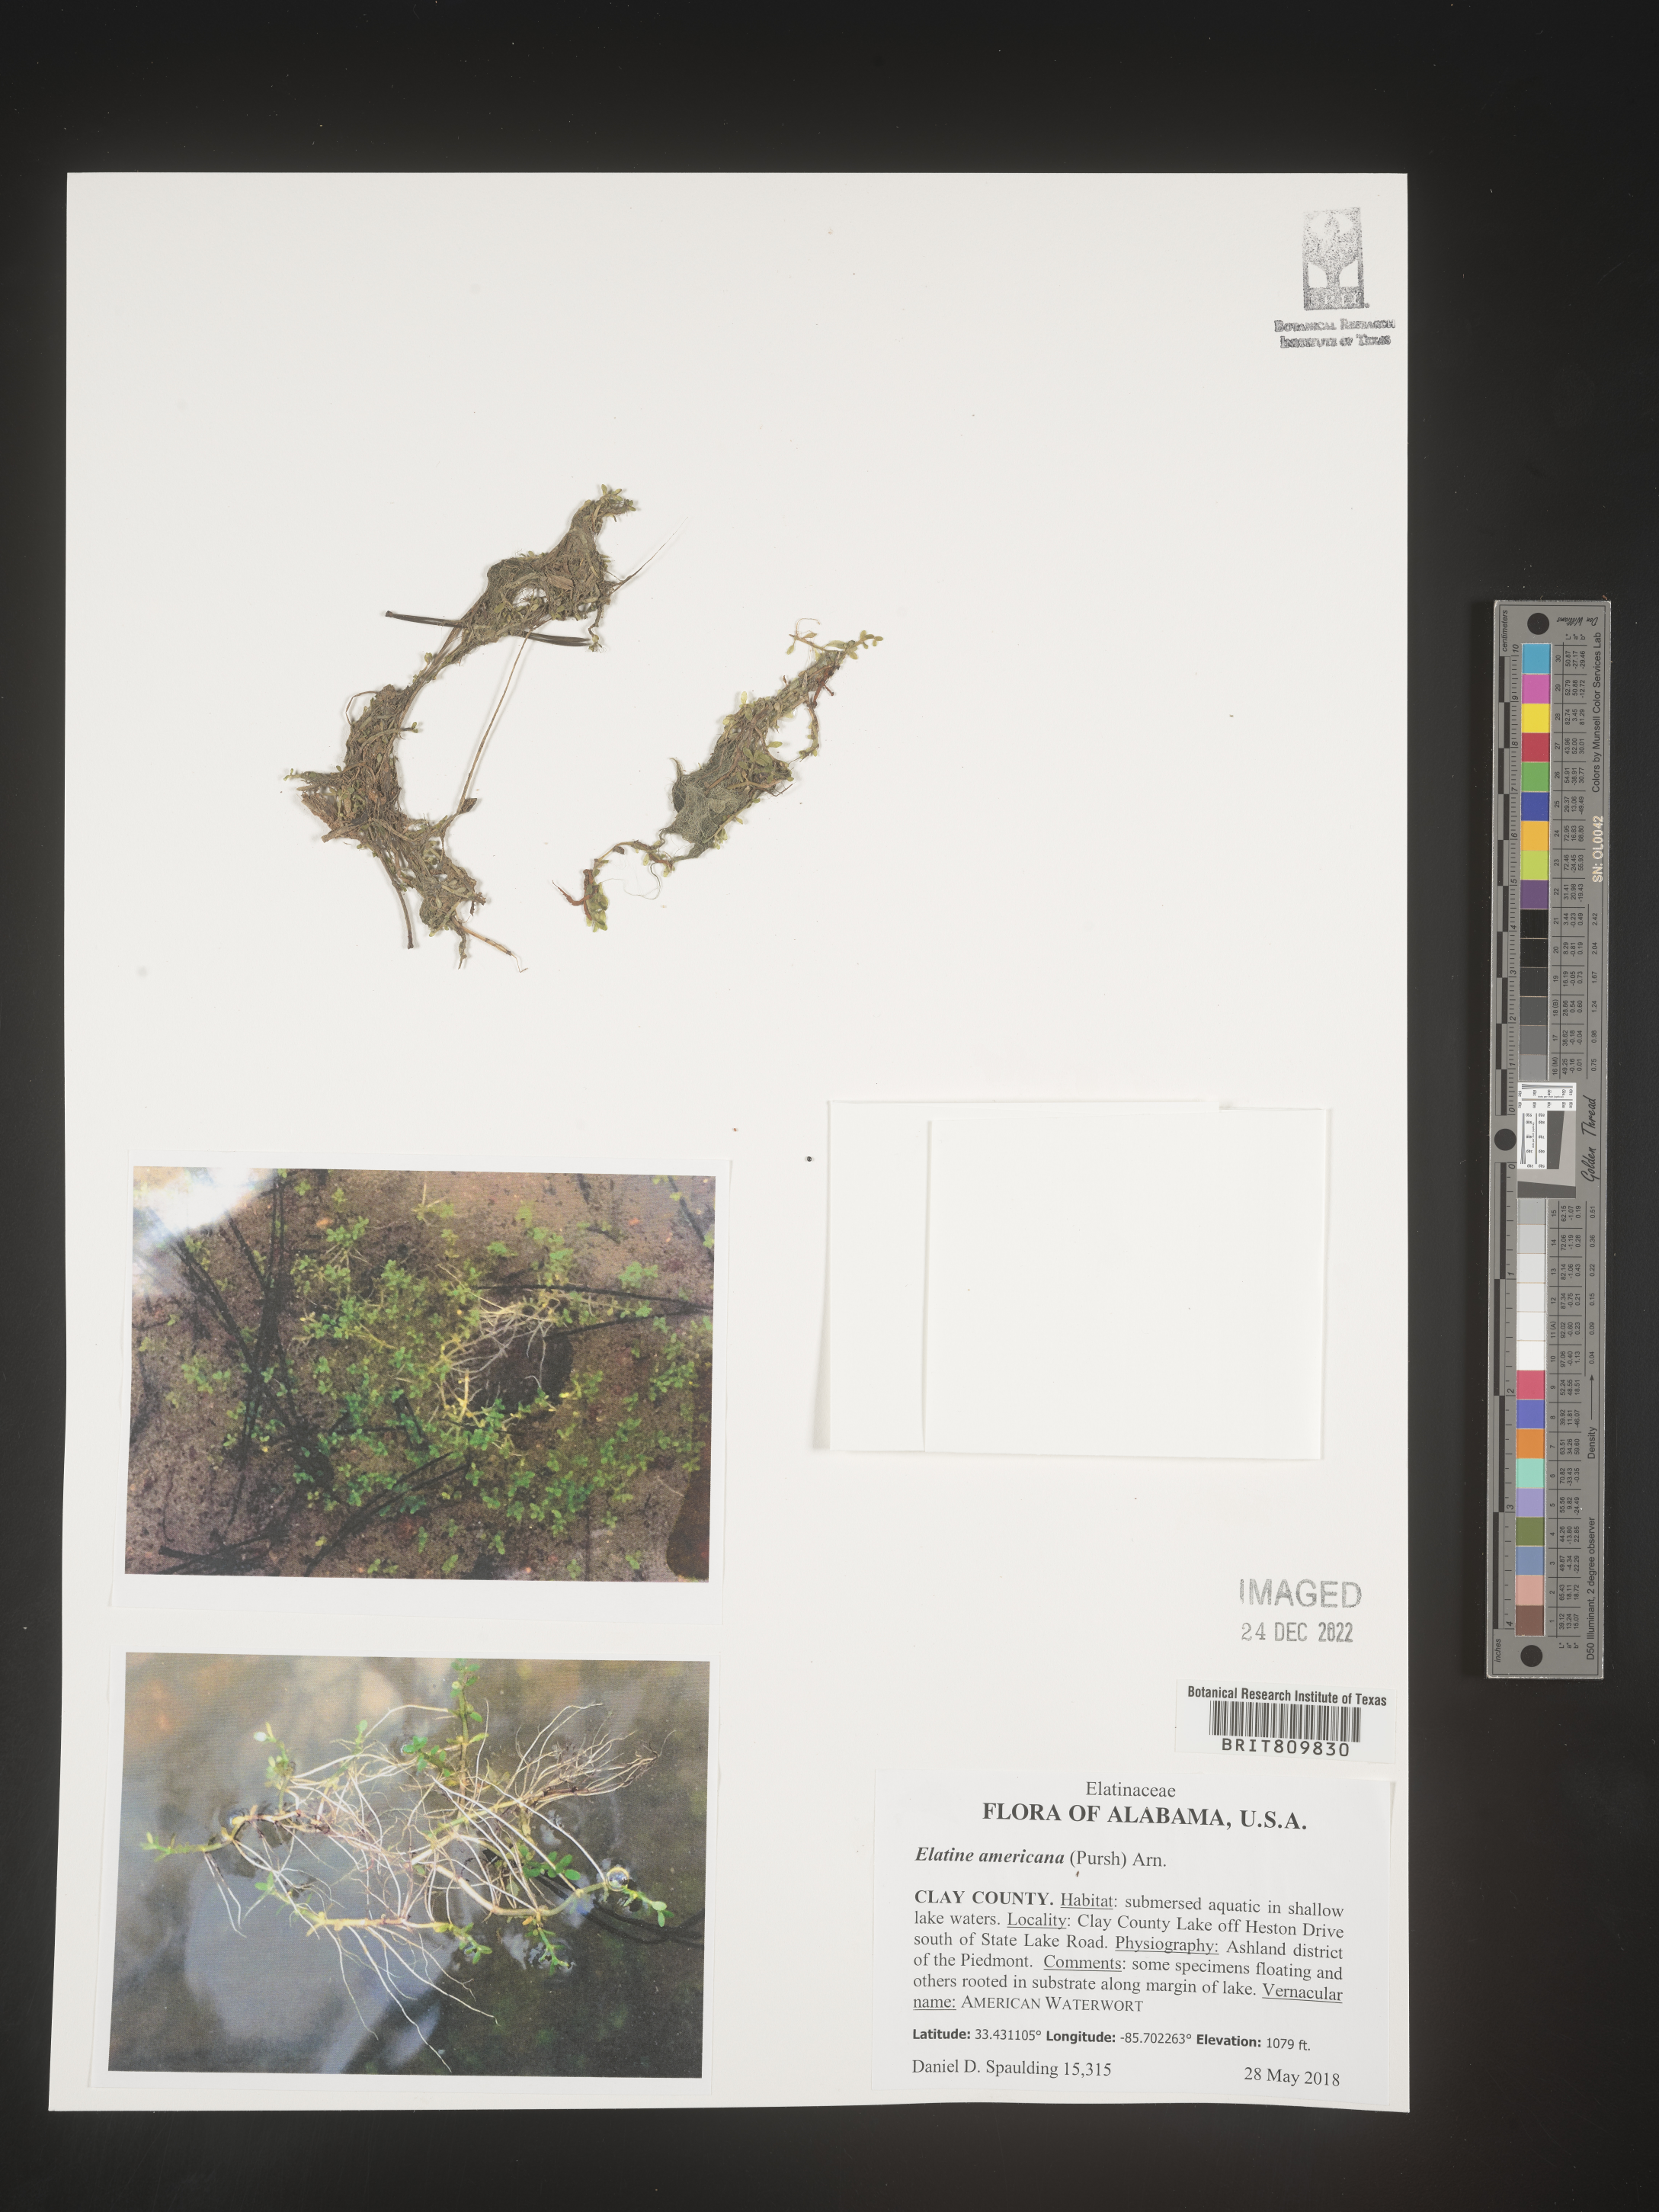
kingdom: Plantae
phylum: Tracheophyta
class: Magnoliopsida
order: Malpighiales
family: Elatinaceae
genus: Elatine
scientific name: Elatine
